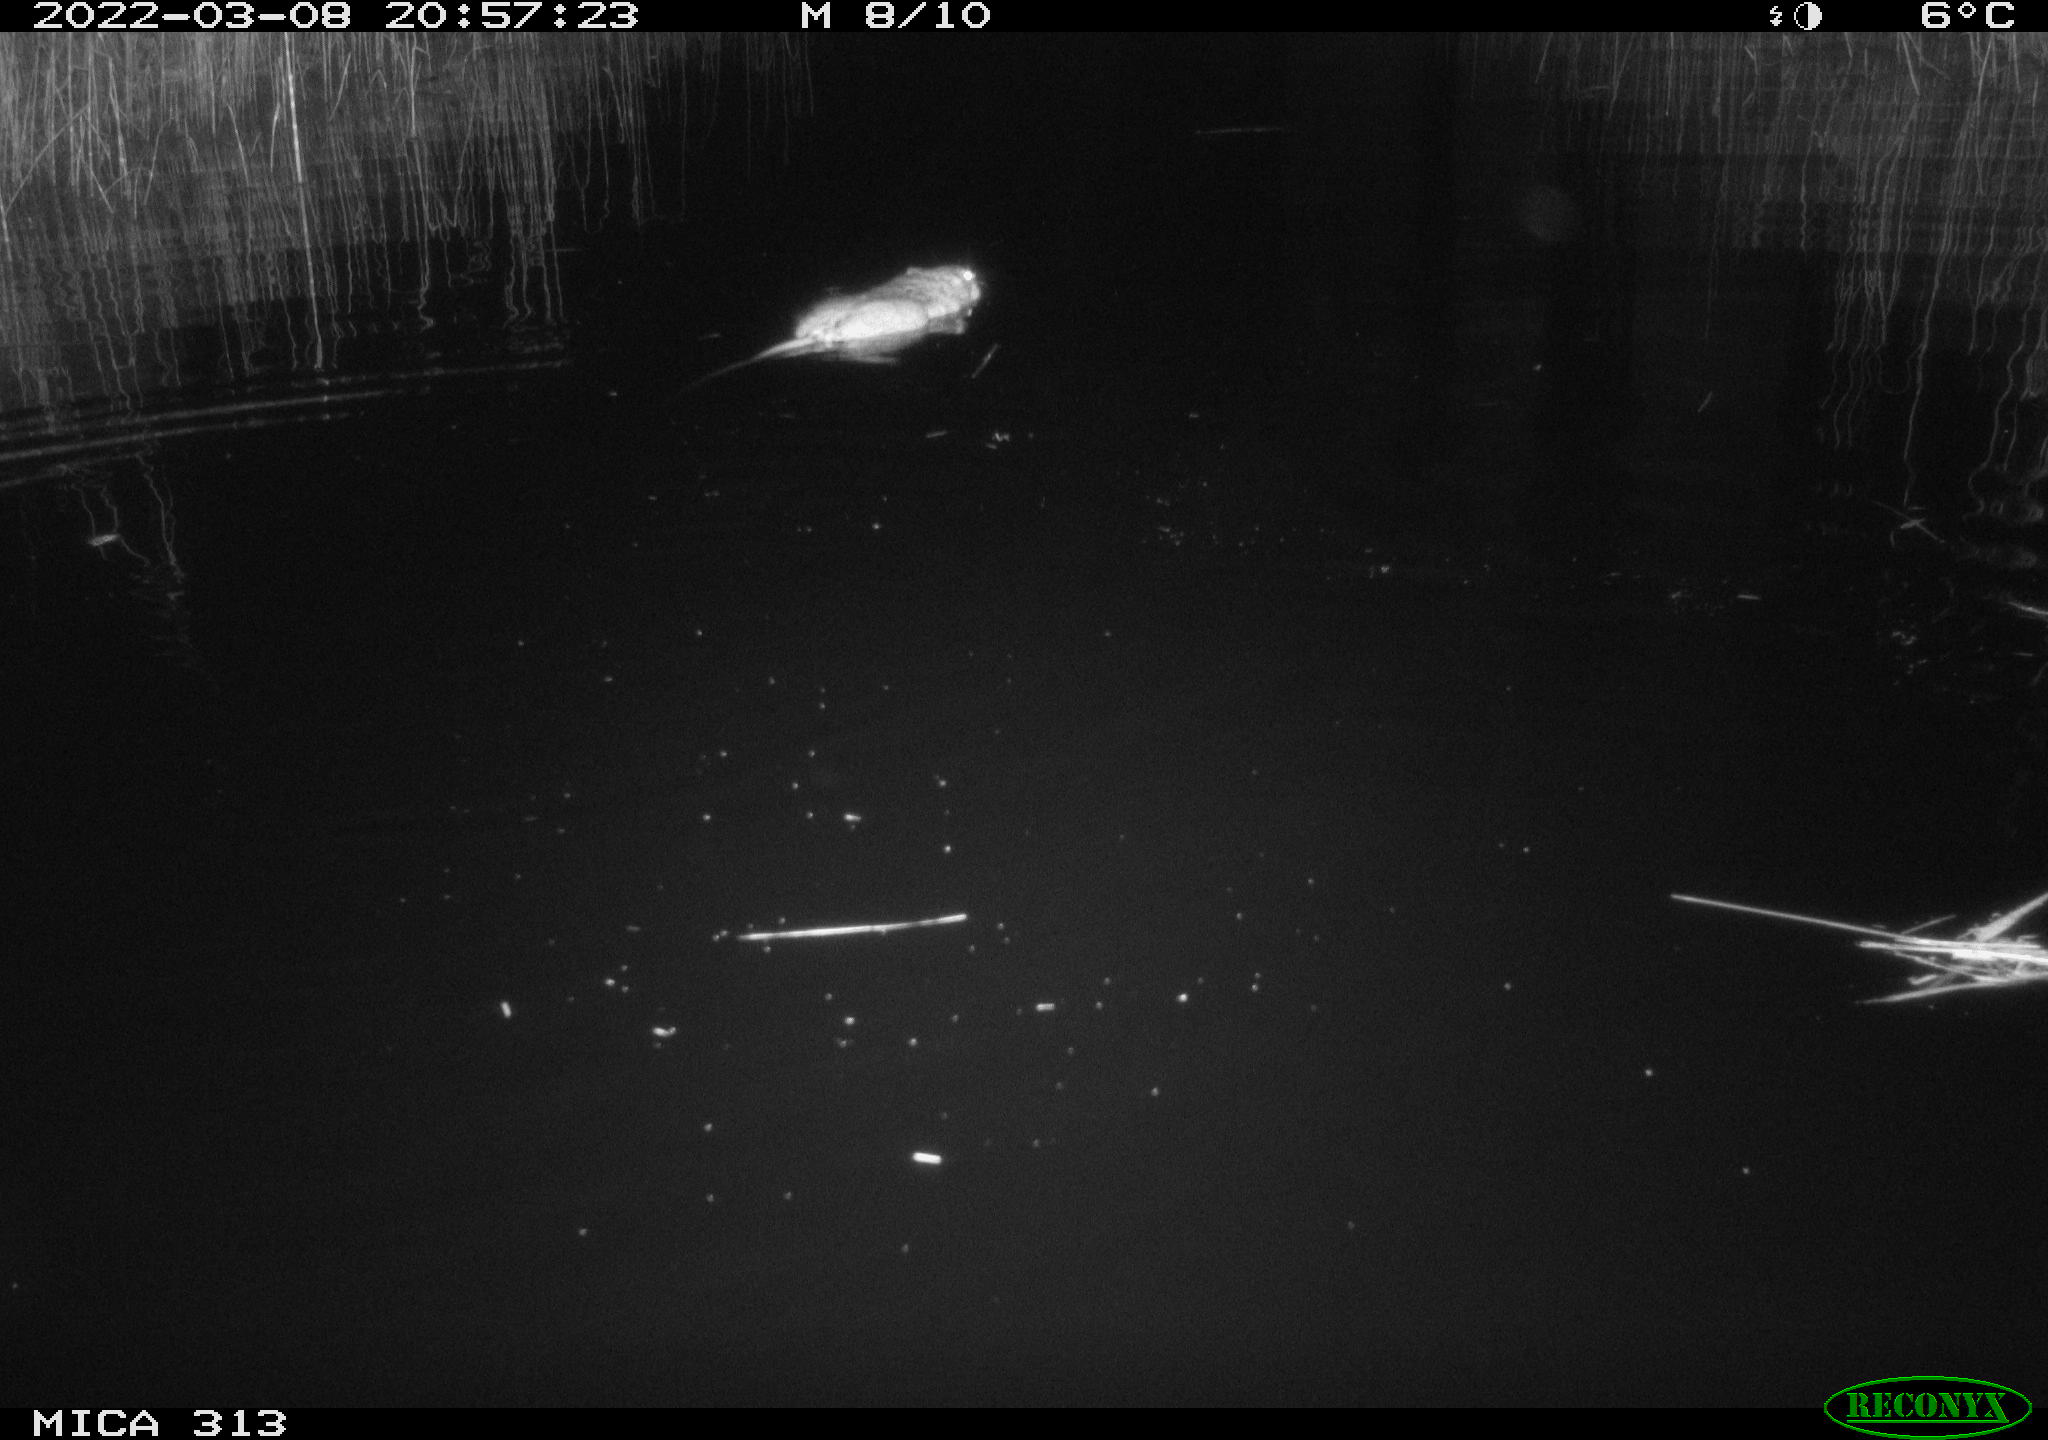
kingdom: Animalia
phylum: Chordata
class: Mammalia
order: Rodentia
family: Cricetidae
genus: Ondatra
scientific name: Ondatra zibethicus
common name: Muskrat
